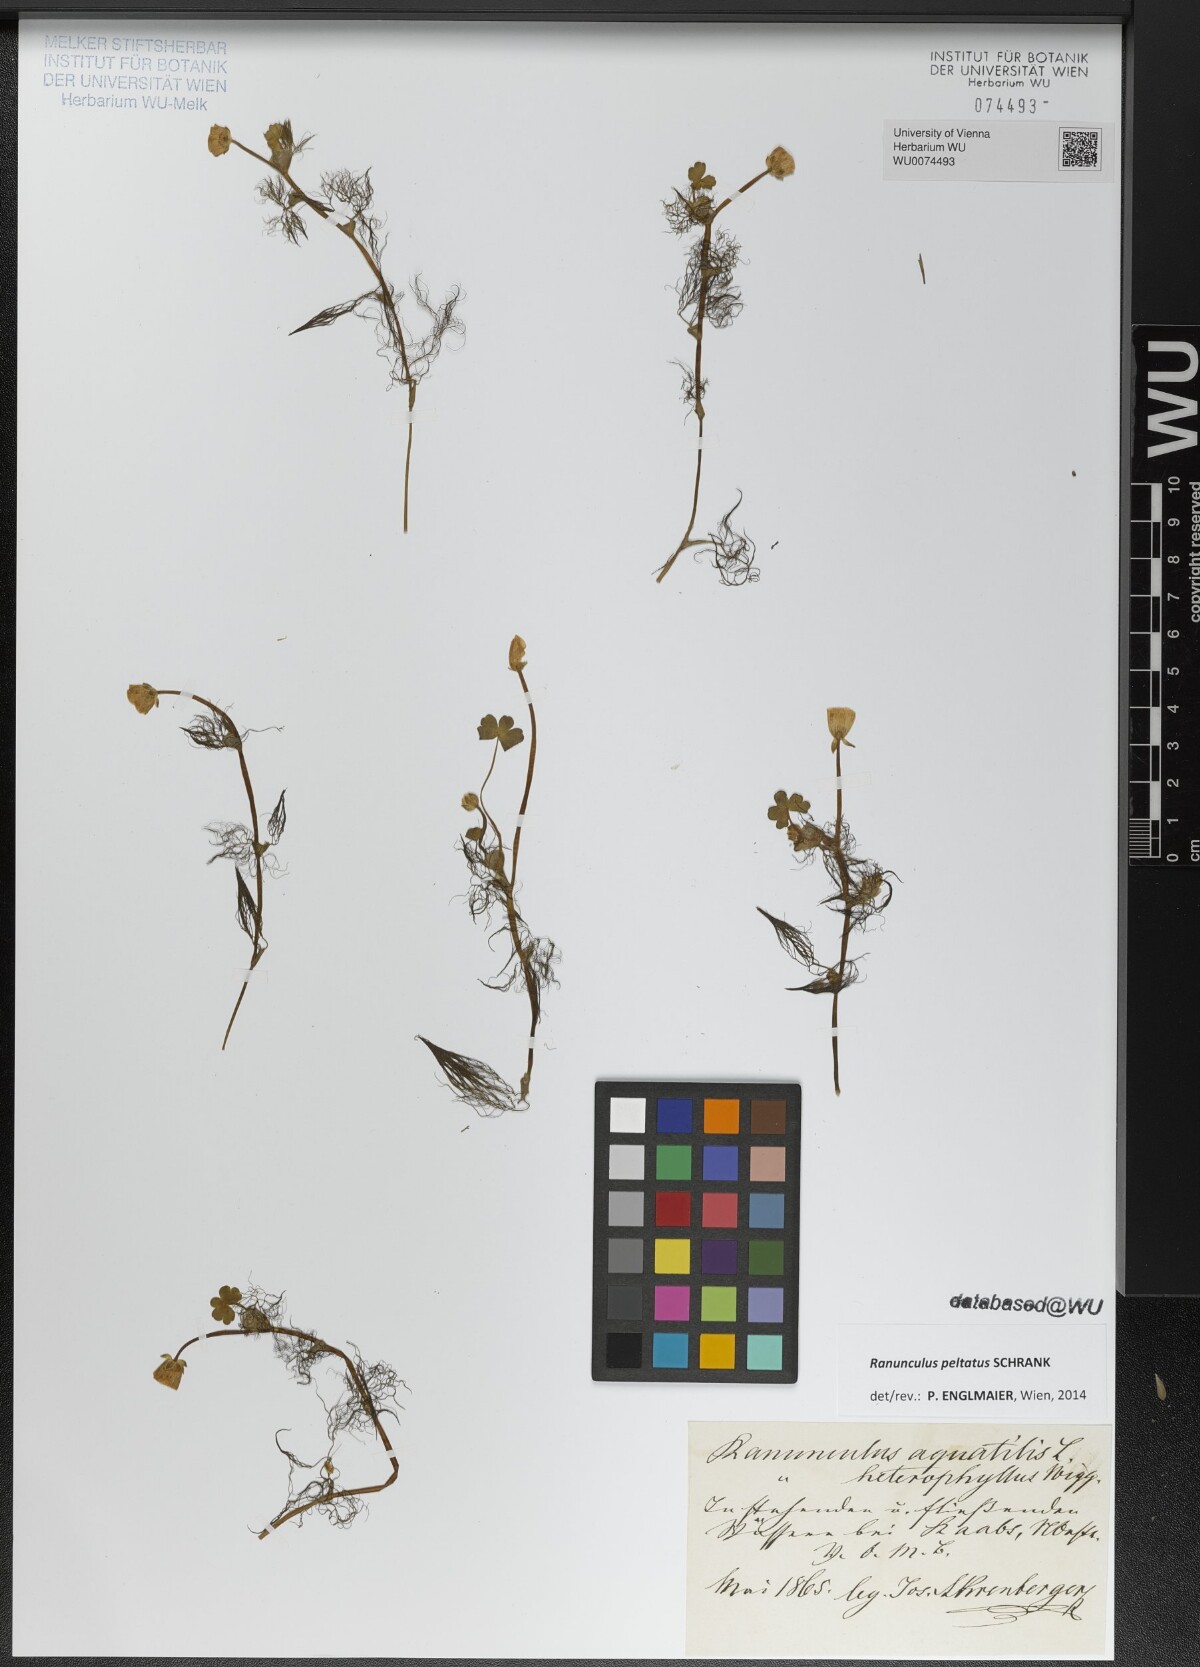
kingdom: Plantae
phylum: Tracheophyta
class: Magnoliopsida
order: Ranunculales
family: Ranunculaceae
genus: Ranunculus
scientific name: Ranunculus peltatus
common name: Pond water-crowfoot
